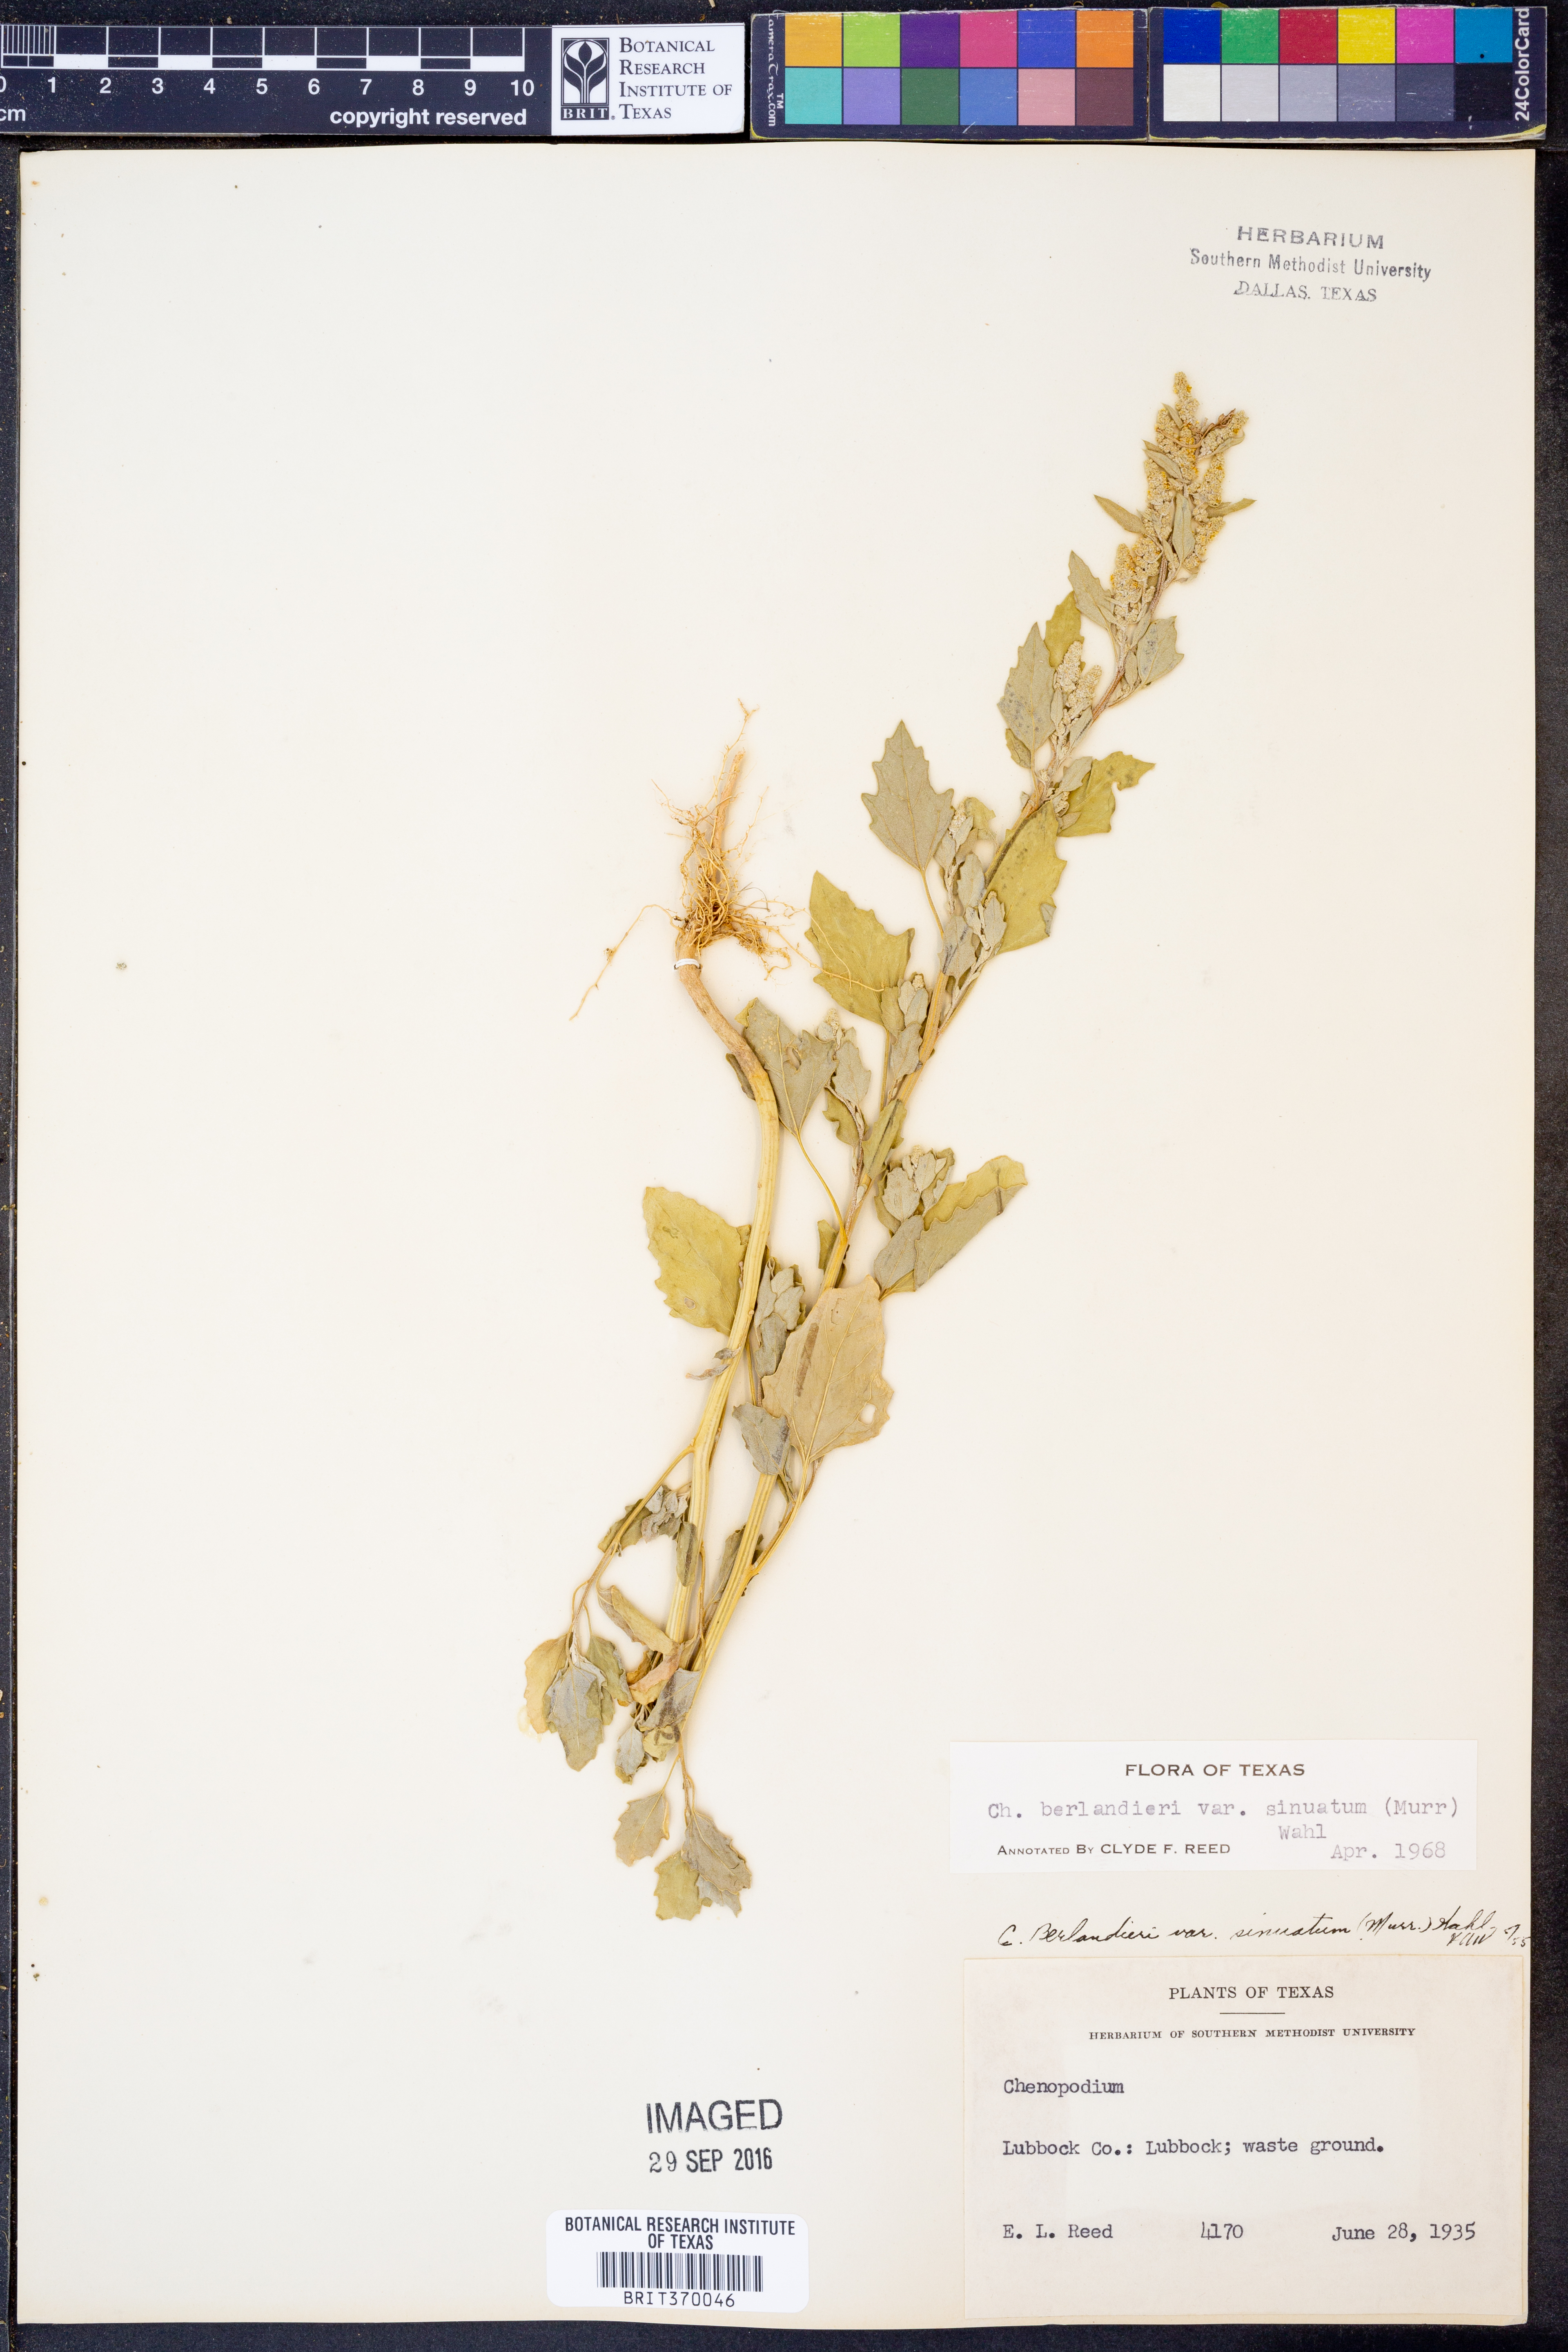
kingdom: Plantae
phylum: Tracheophyta
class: Magnoliopsida
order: Caryophyllales
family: Amaranthaceae
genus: Chenopodium
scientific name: Chenopodium berlandieri
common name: Pit-seed goosefoot
